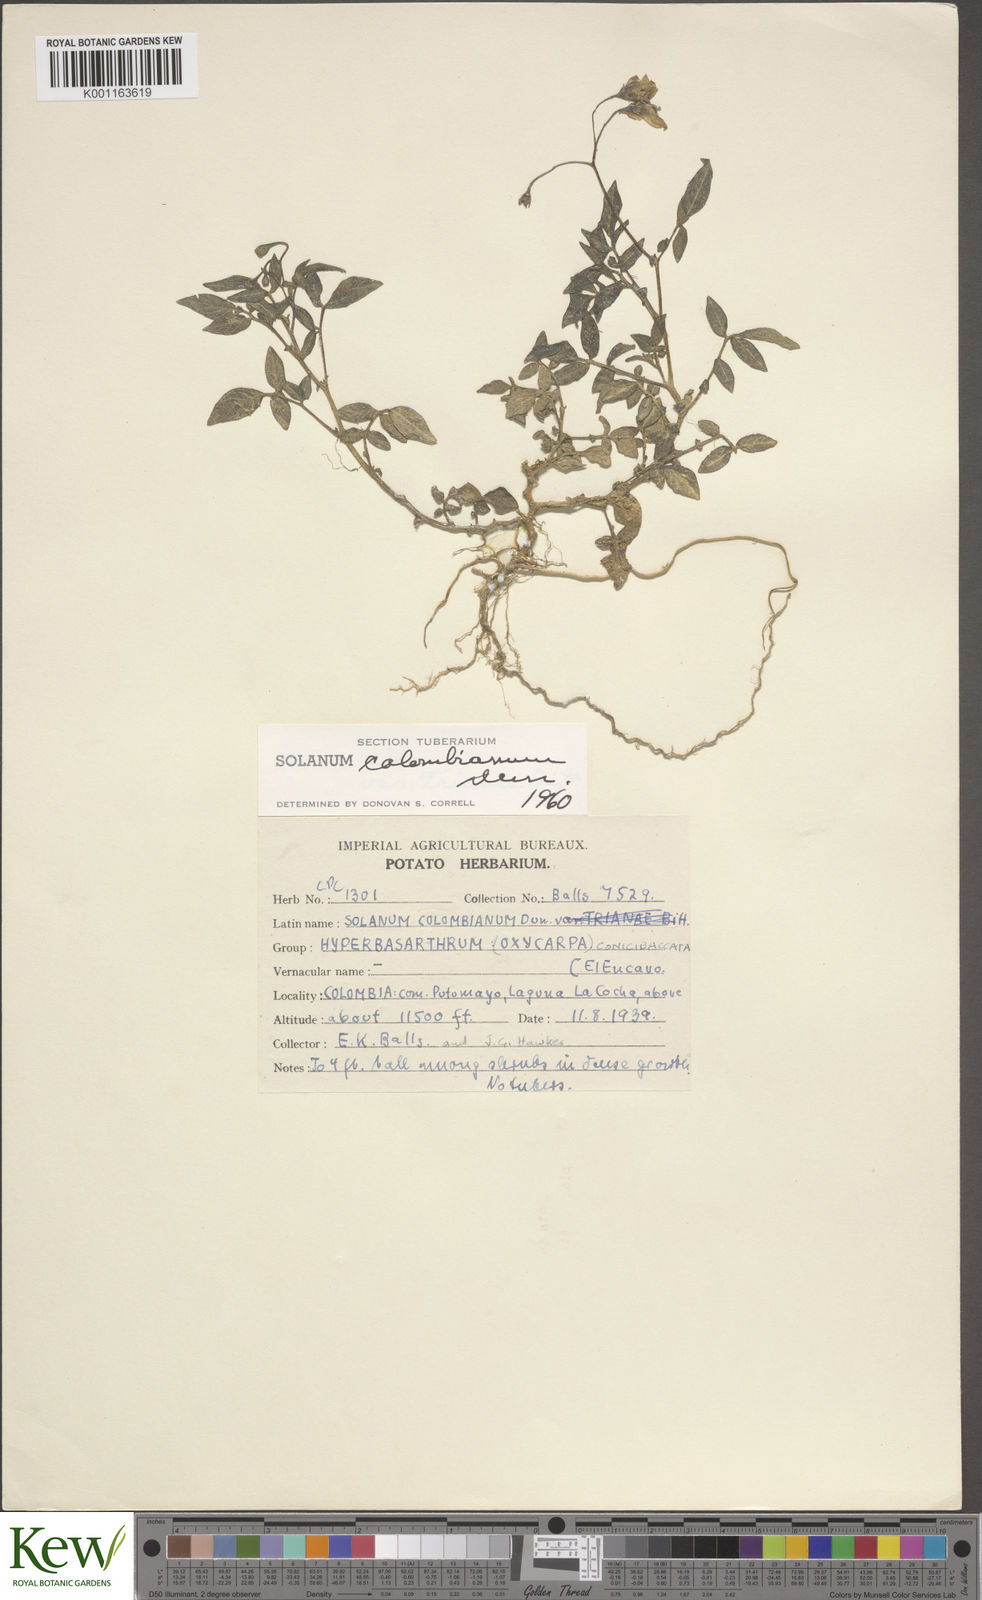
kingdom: Plantae
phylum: Tracheophyta
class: Magnoliopsida
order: Solanales
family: Solanaceae
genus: Solanum
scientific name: Solanum colombianum
